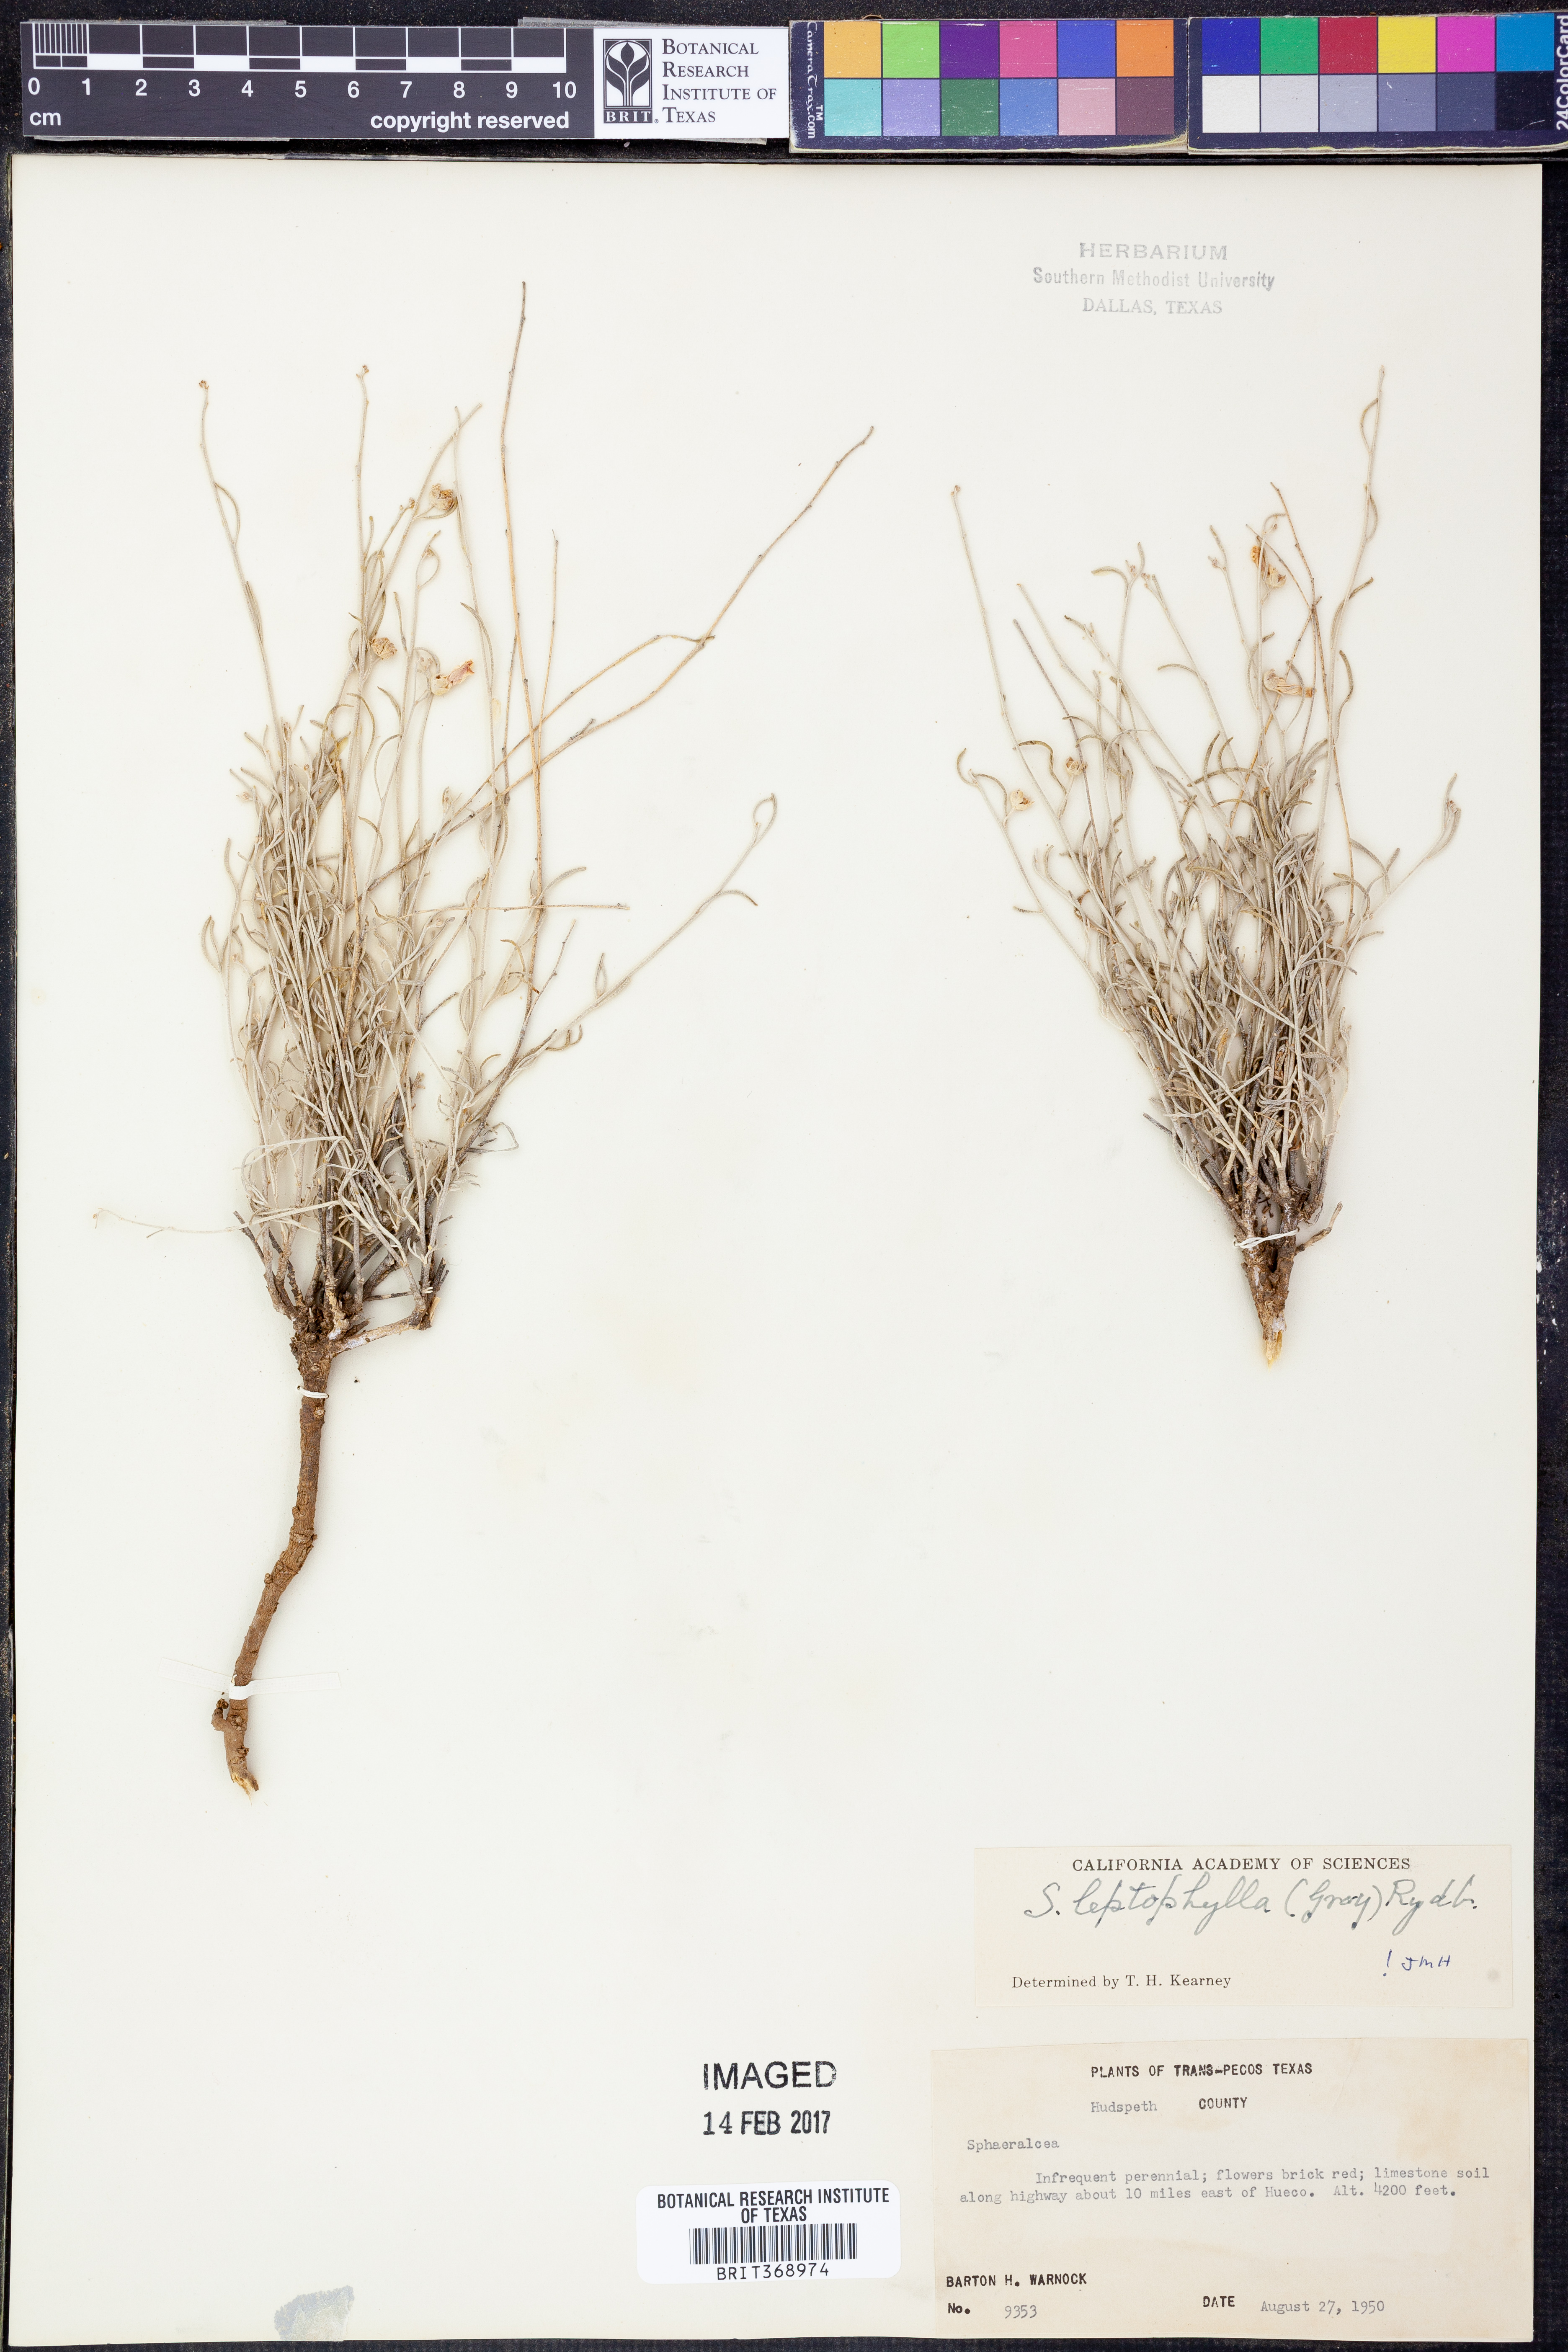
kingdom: Plantae
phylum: Tracheophyta
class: Magnoliopsida
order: Malvales
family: Malvaceae
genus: Sphaeralcea
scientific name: Sphaeralcea leptophylla
